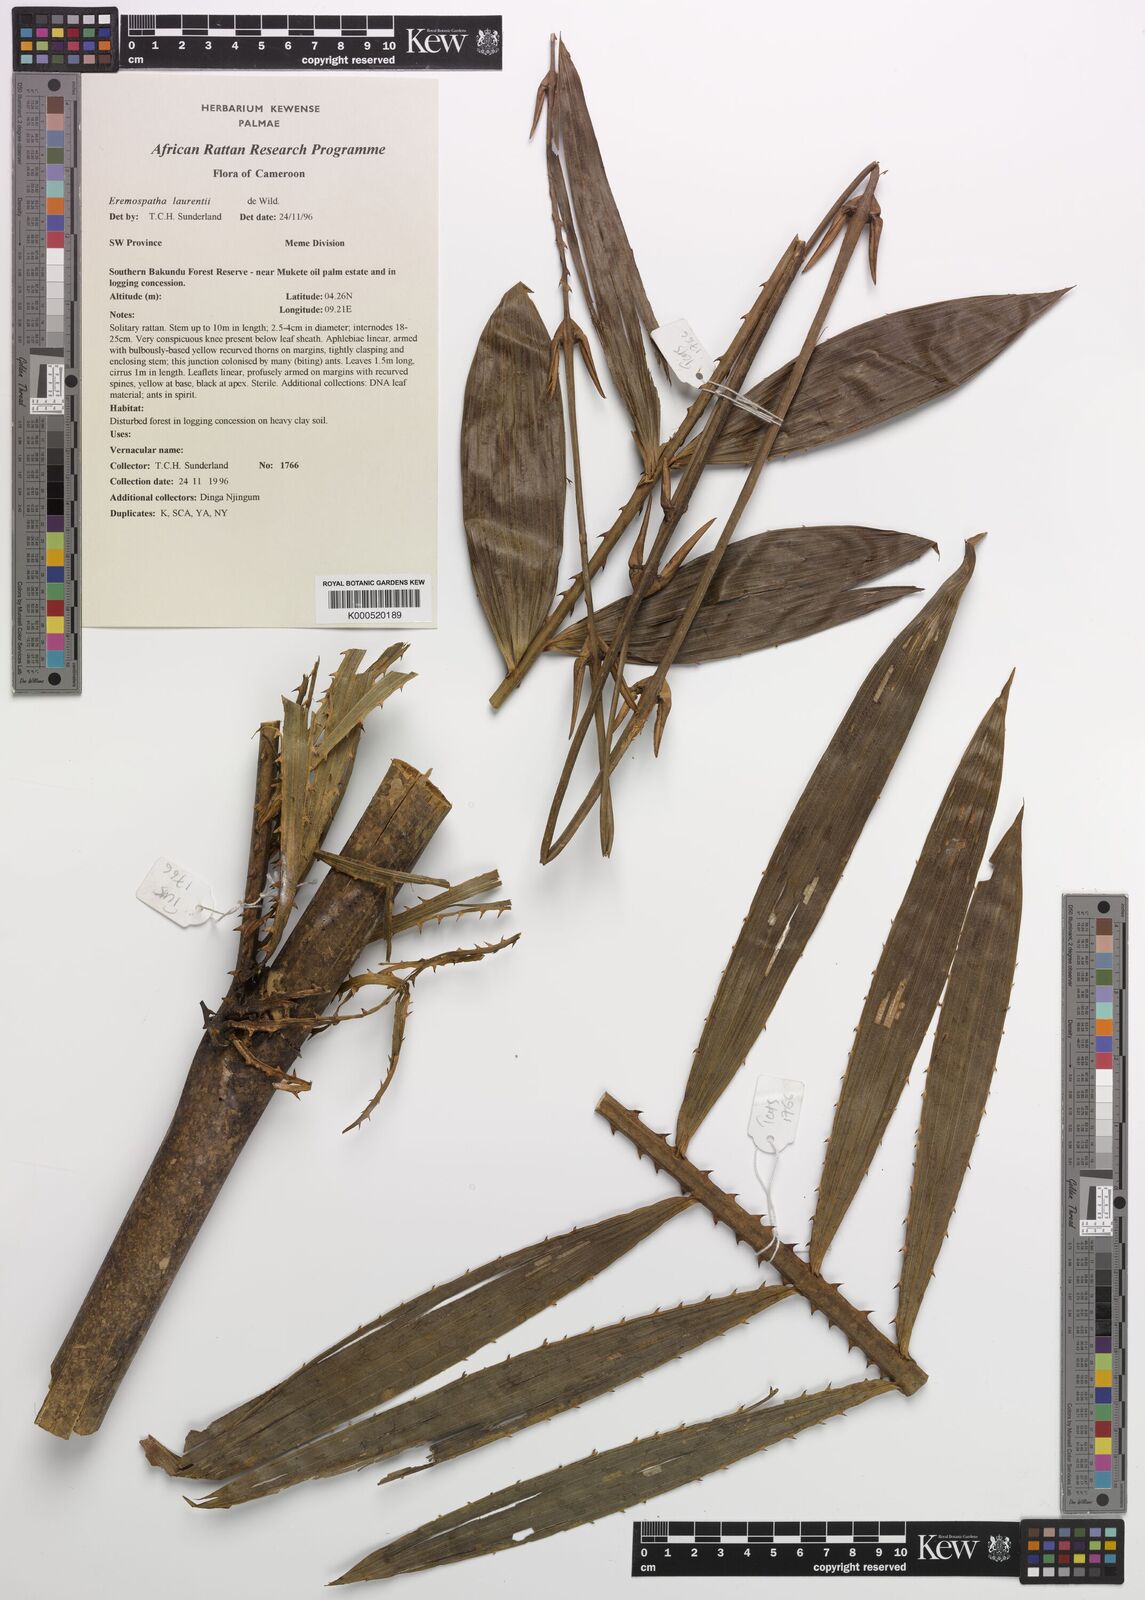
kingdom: Plantae
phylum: Tracheophyta
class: Liliopsida
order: Arecales
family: Arecaceae
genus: Eremospatha
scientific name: Eremospatha laurentii
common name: Rattan palm
